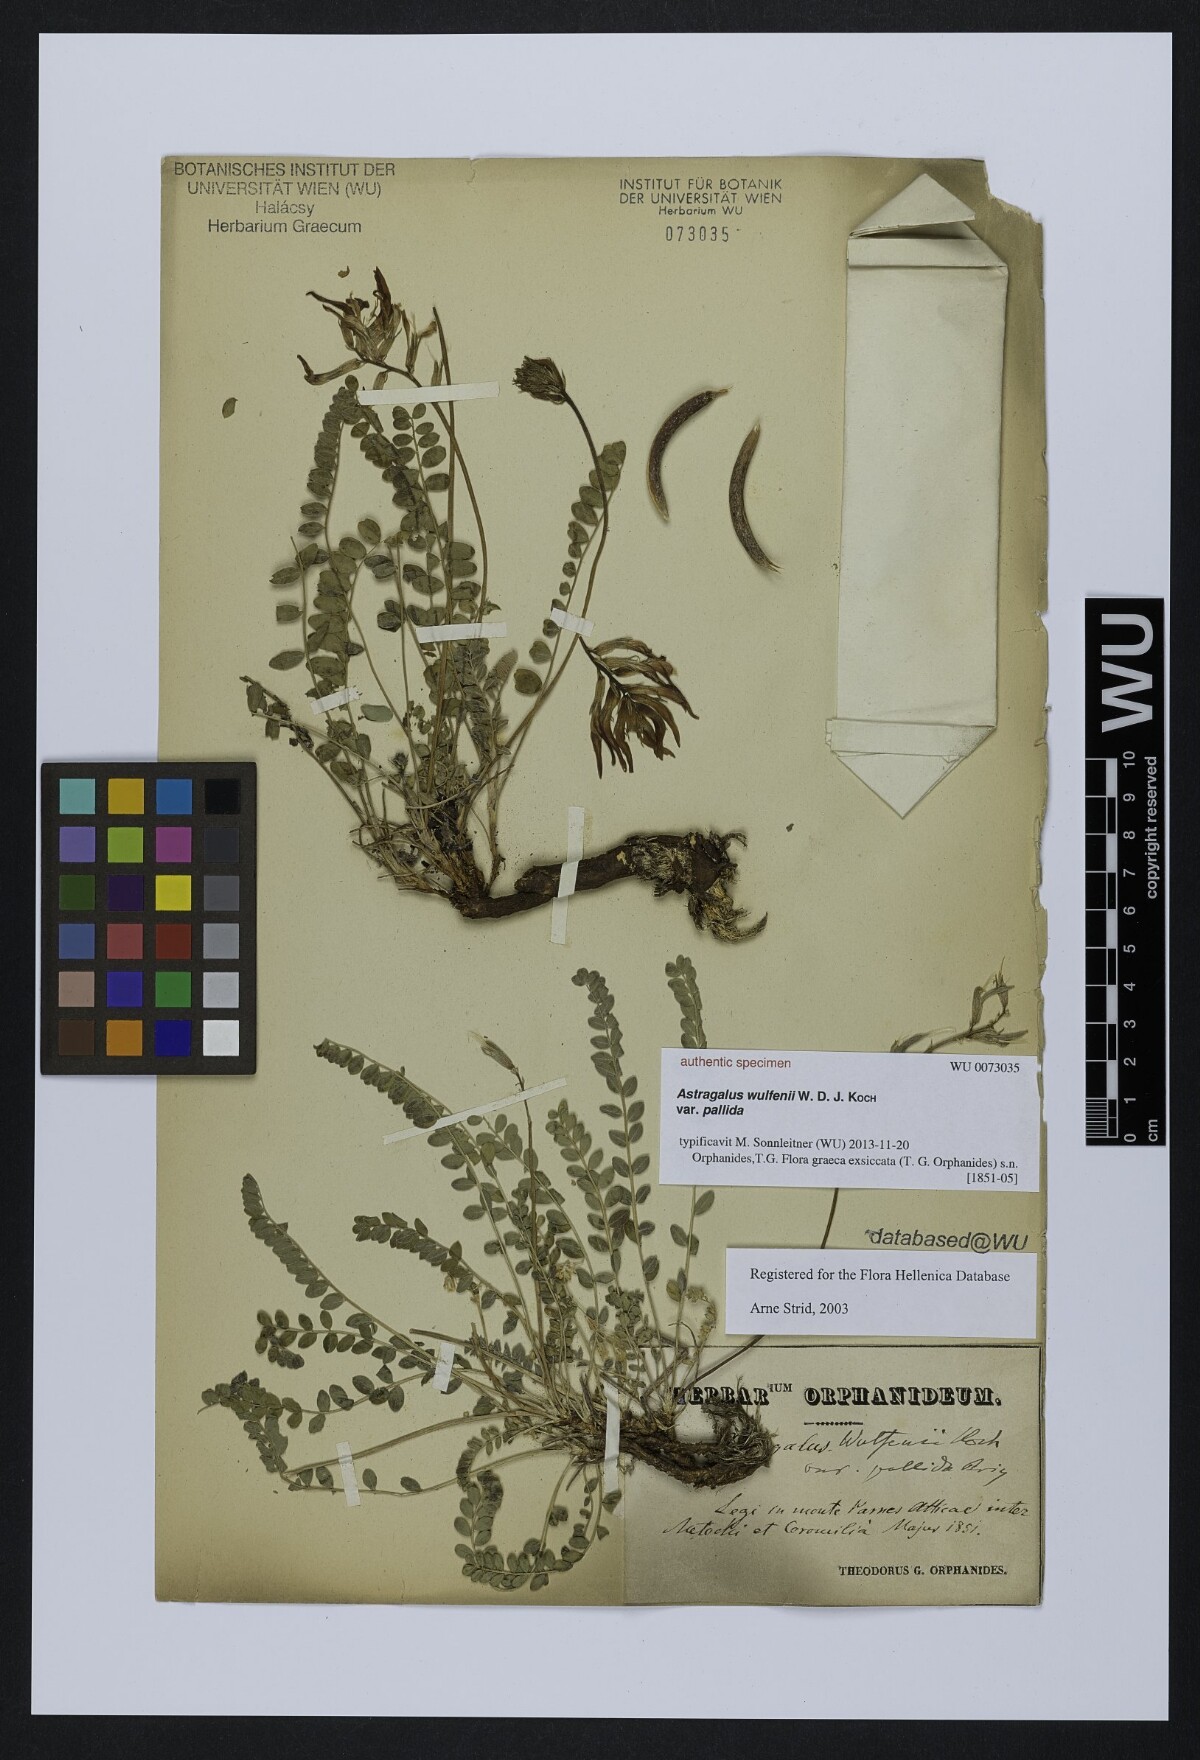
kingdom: Plantae
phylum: Tracheophyta
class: Magnoliopsida
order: Fabales
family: Fabaceae
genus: Astragalus
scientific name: Astragalus monspessulanus
